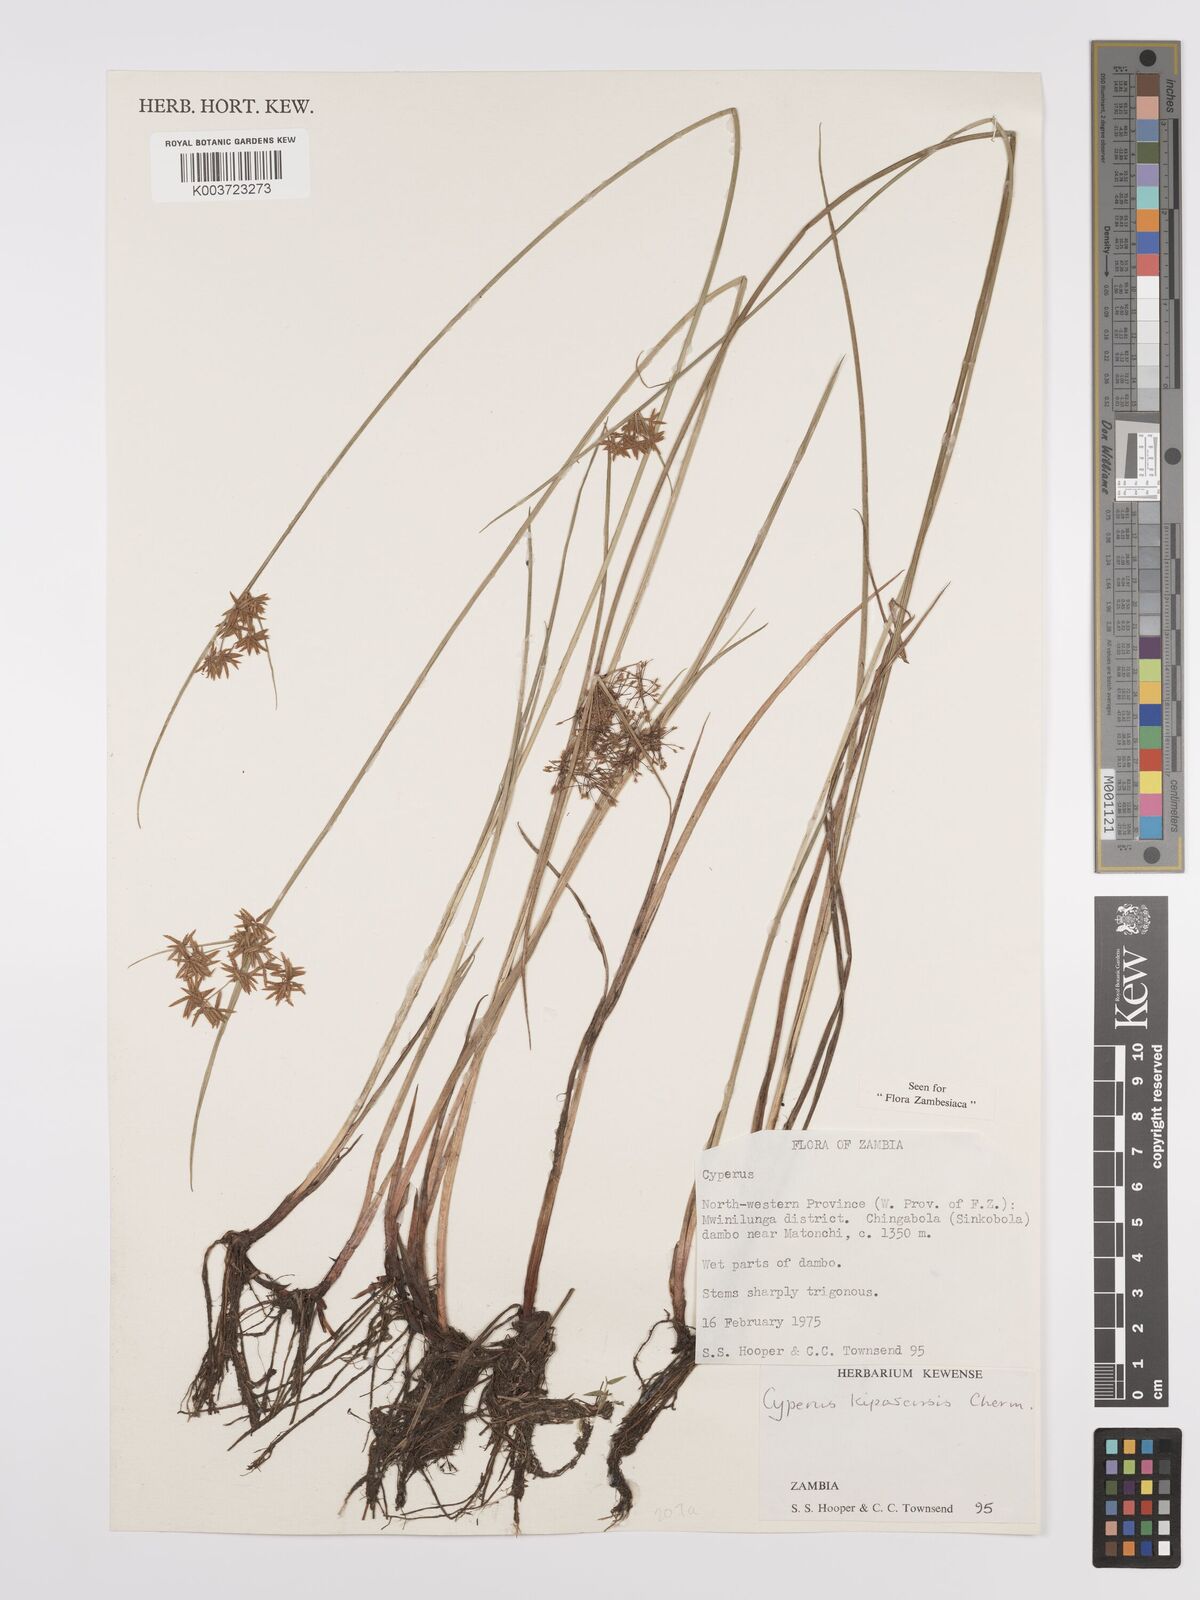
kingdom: Plantae
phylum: Tracheophyta
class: Liliopsida
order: Poales
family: Cyperaceae
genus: Cyperus
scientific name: Cyperus kipasensis
